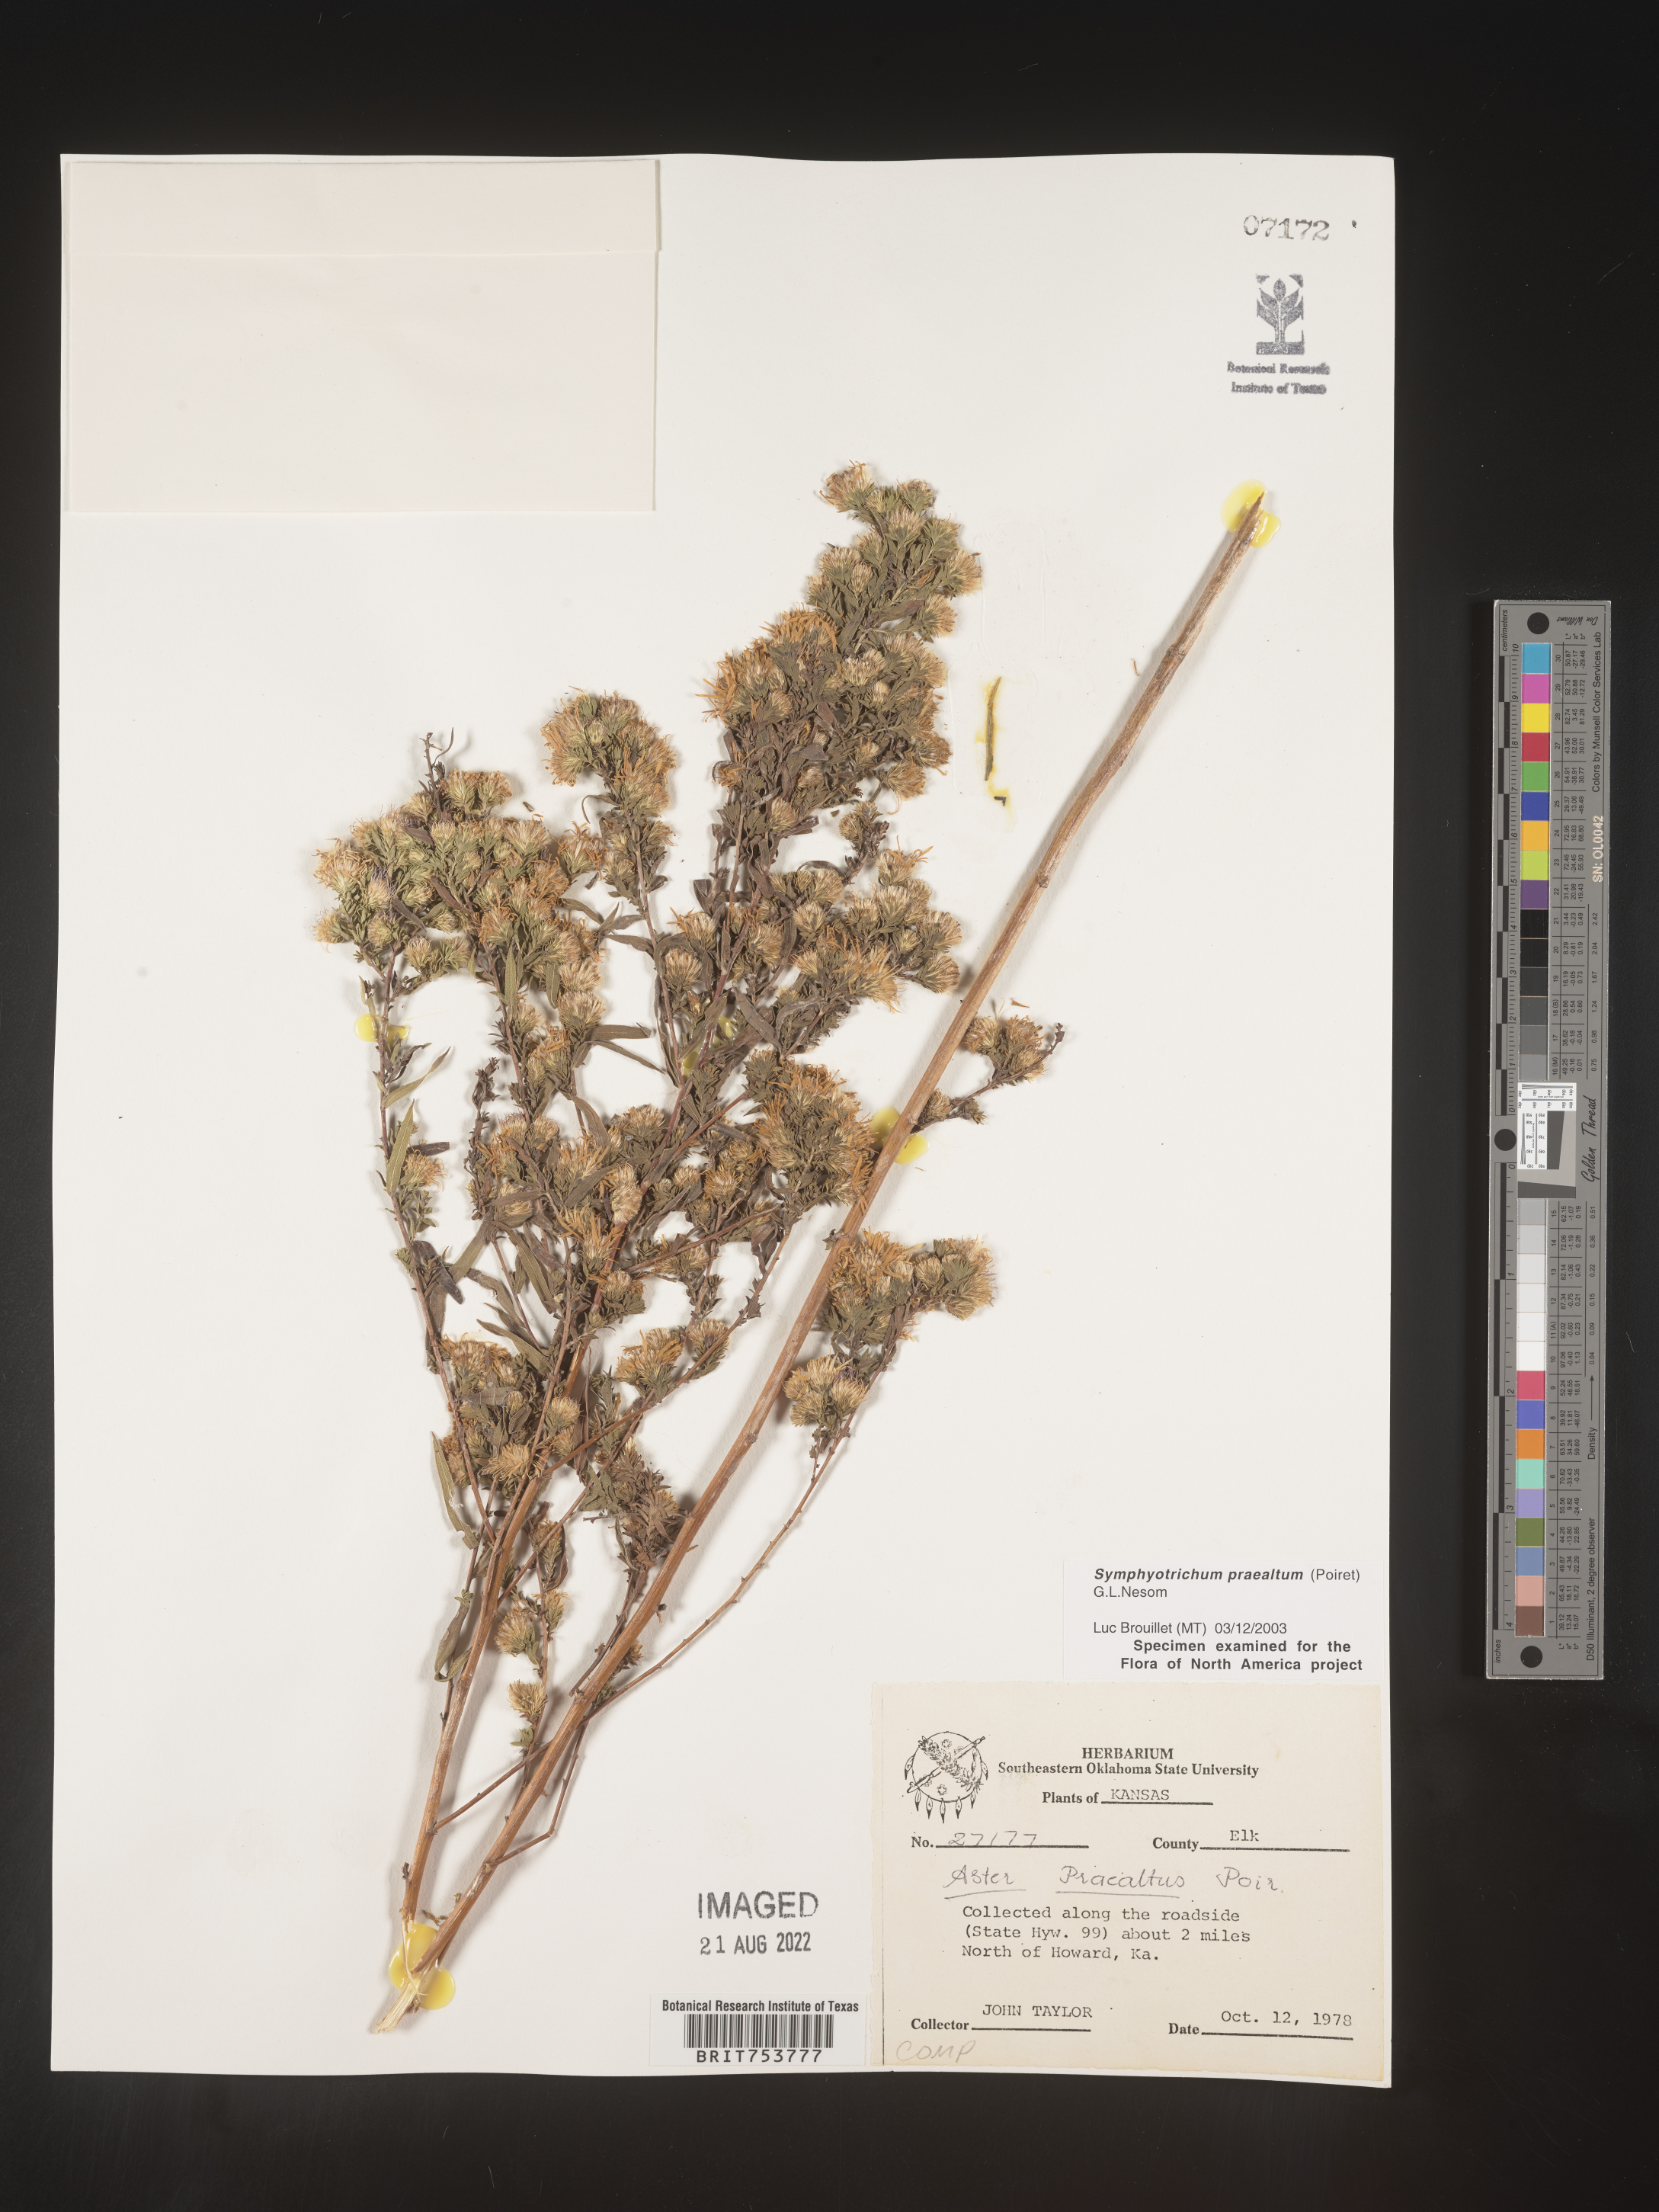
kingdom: Plantae
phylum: Tracheophyta
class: Magnoliopsida
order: Asterales
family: Asteraceae
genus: Symphyotrichum
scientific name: Symphyotrichum praealtum
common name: Willow aster
